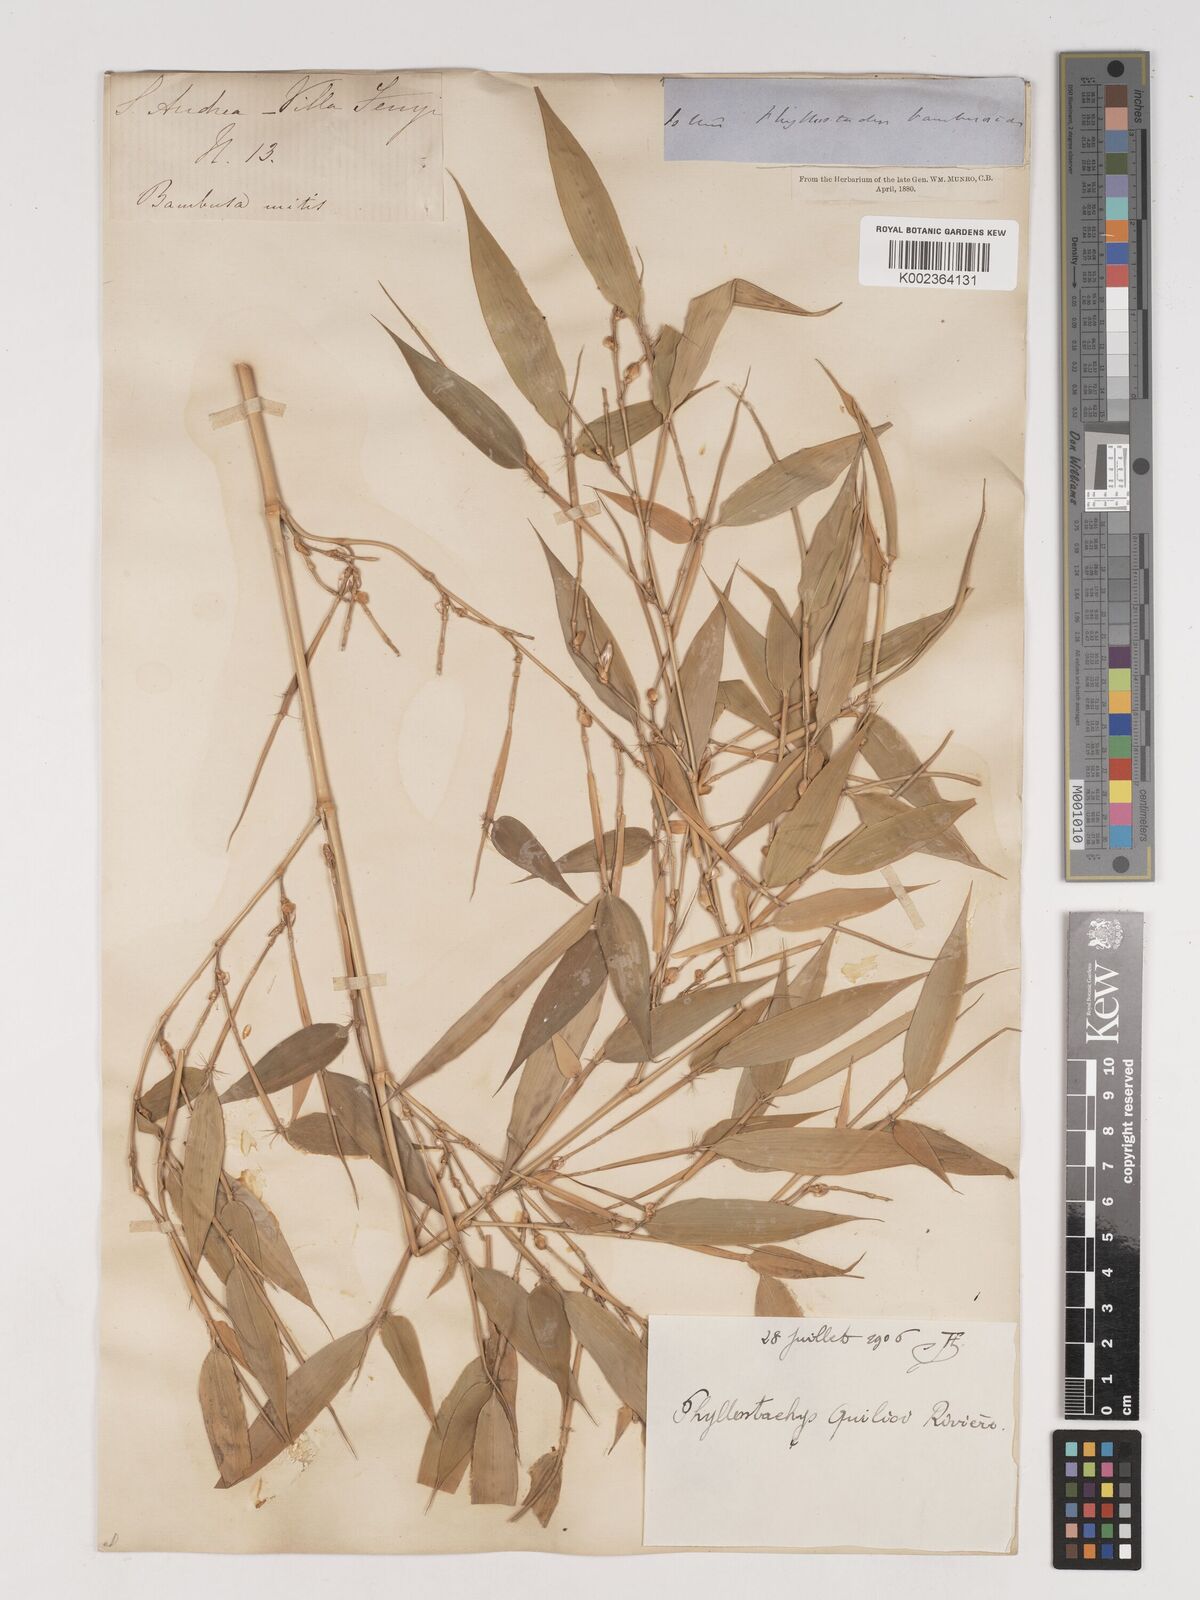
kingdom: Plantae
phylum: Tracheophyta
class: Liliopsida
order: Poales
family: Poaceae
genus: Phyllostachys
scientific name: Phyllostachys reticulata
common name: Bamboo
